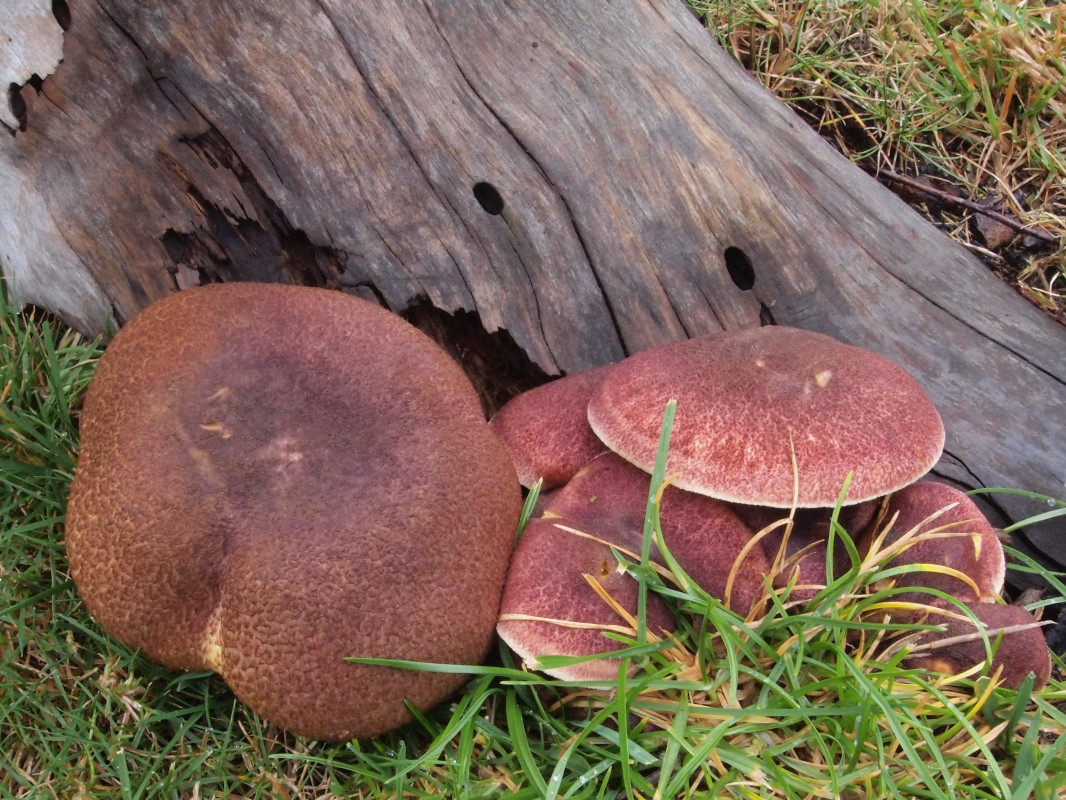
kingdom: Fungi
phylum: Basidiomycota
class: Agaricomycetes
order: Agaricales
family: Tricholomataceae
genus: Tricholomopsis
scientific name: Tricholomopsis rutilans
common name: purpur-væbnerhat
